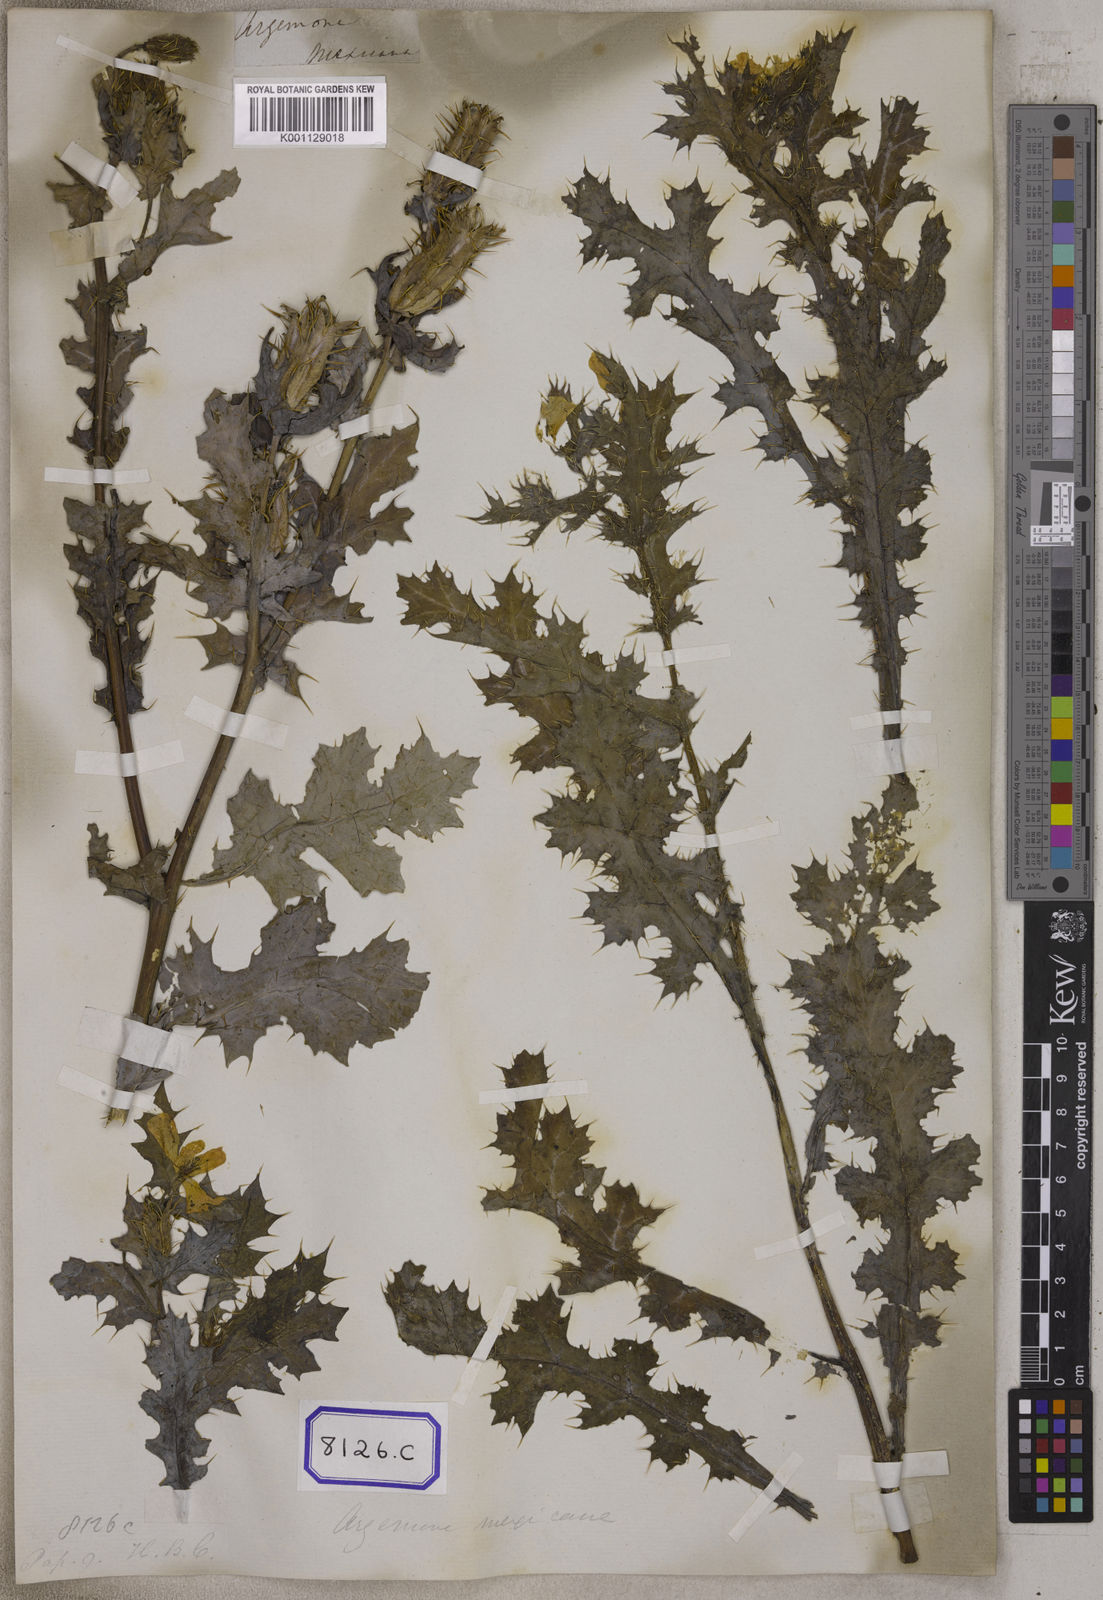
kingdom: Plantae
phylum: Tracheophyta
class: Magnoliopsida
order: Ranunculales
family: Papaveraceae
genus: Argemone
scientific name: Argemone mexicana
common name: Mexican poppy
